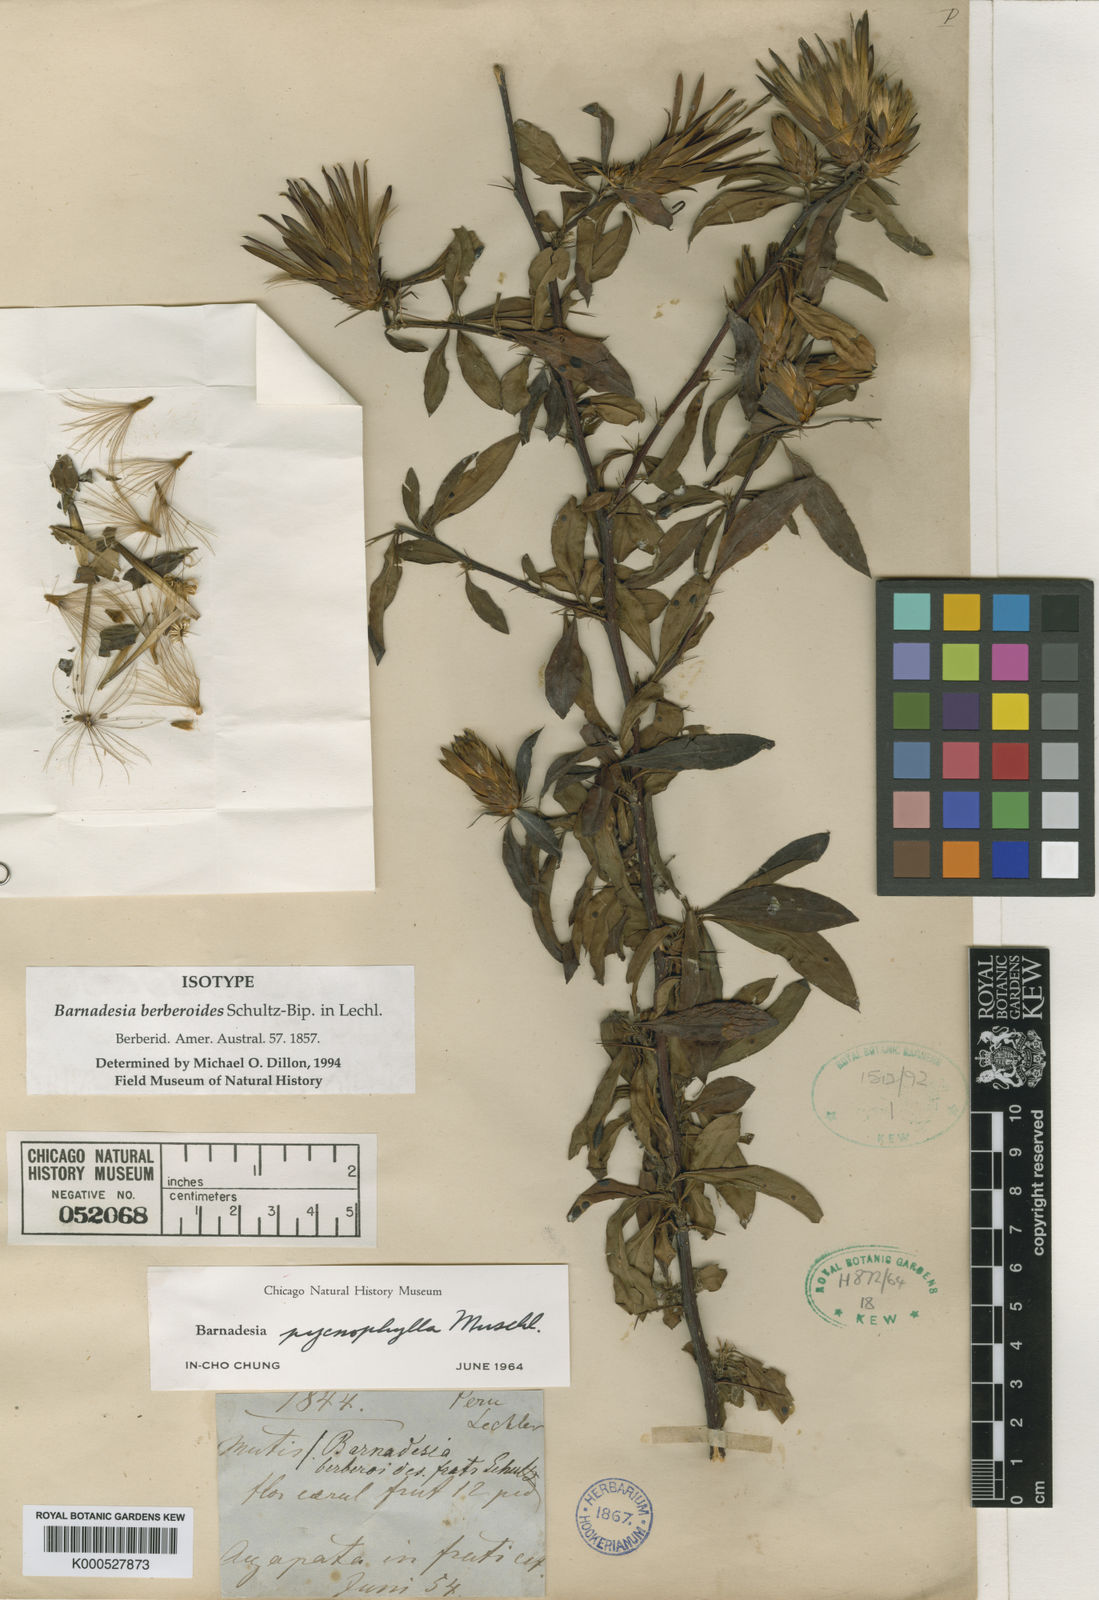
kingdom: Plantae
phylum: Tracheophyta
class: Magnoliopsida
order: Asterales
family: Asteraceae
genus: Barnadesia
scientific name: Barnadesia pycnophylla
